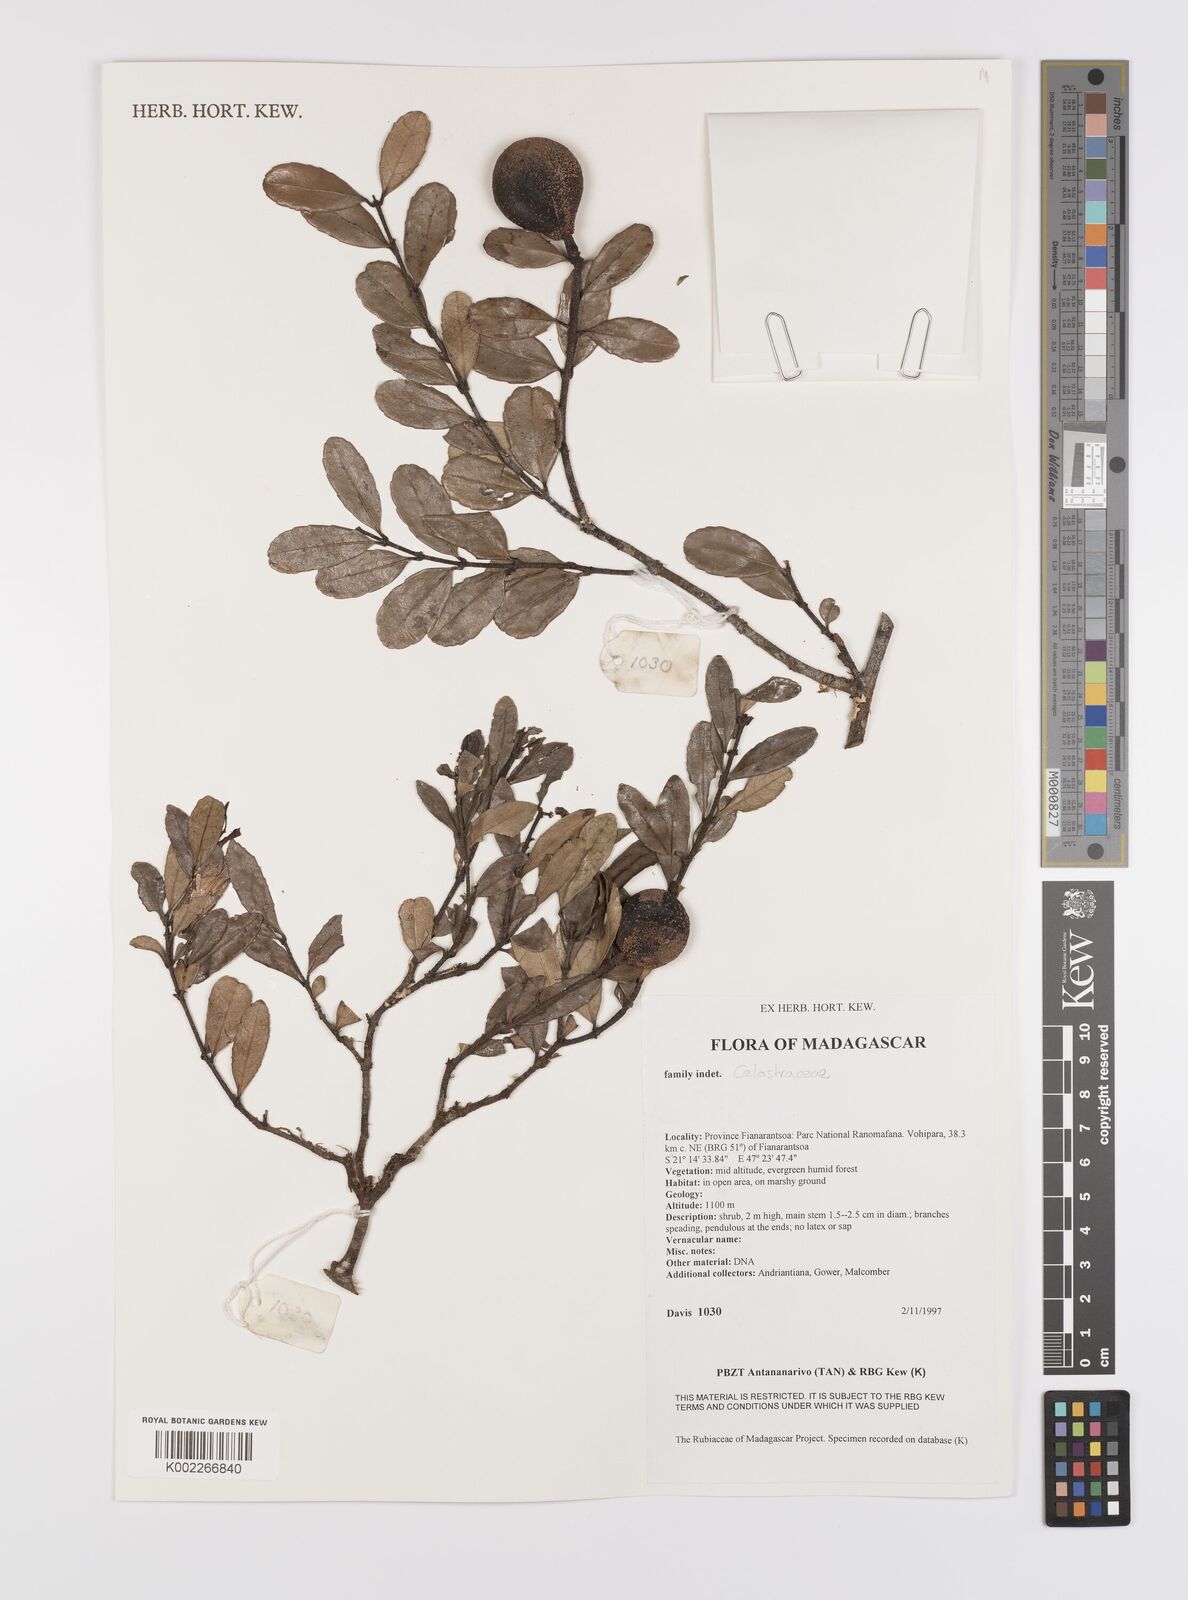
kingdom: Plantae
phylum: Tracheophyta
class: Magnoliopsida
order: Celastrales
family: Celastraceae
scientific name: Celastraceae
